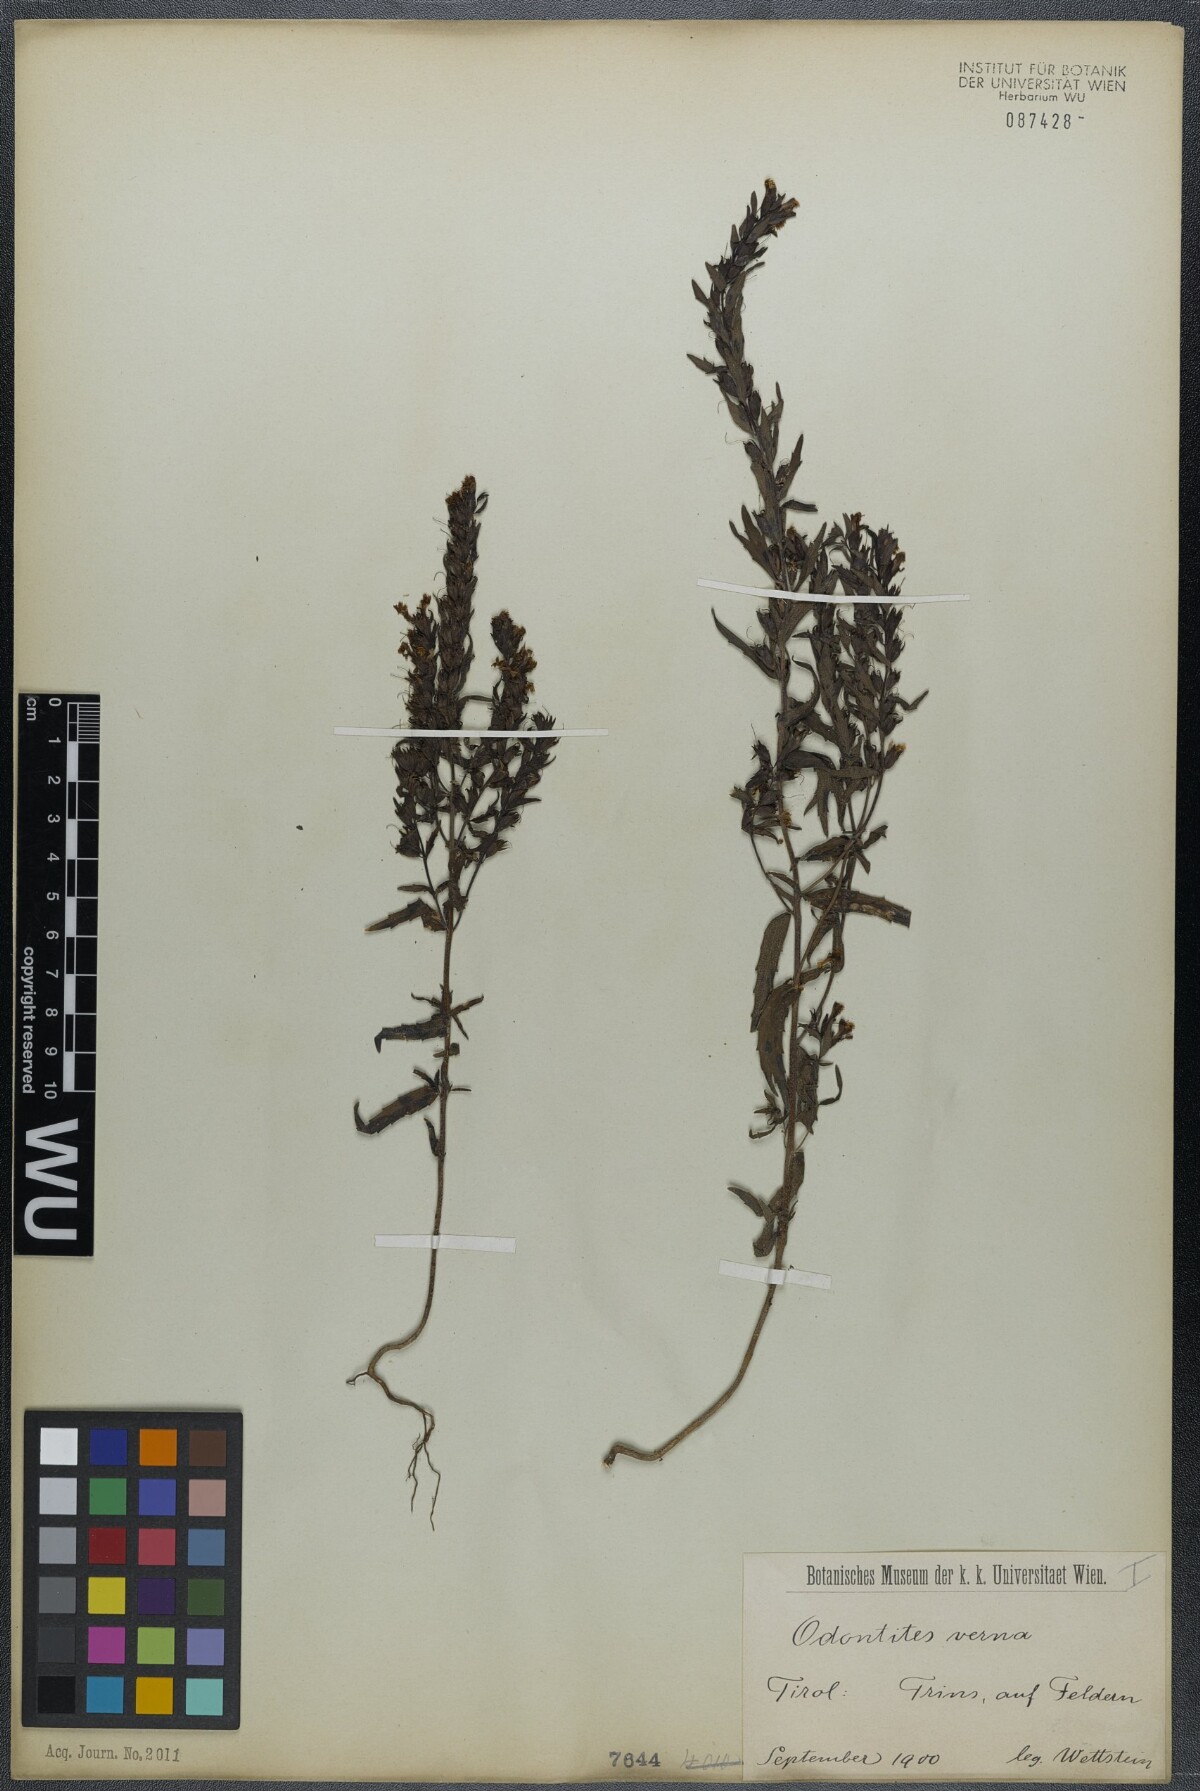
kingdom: Plantae
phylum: Tracheophyta
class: Magnoliopsida
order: Lamiales
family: Orobanchaceae
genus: Odontites
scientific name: Odontites vernus
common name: Red bartsia
